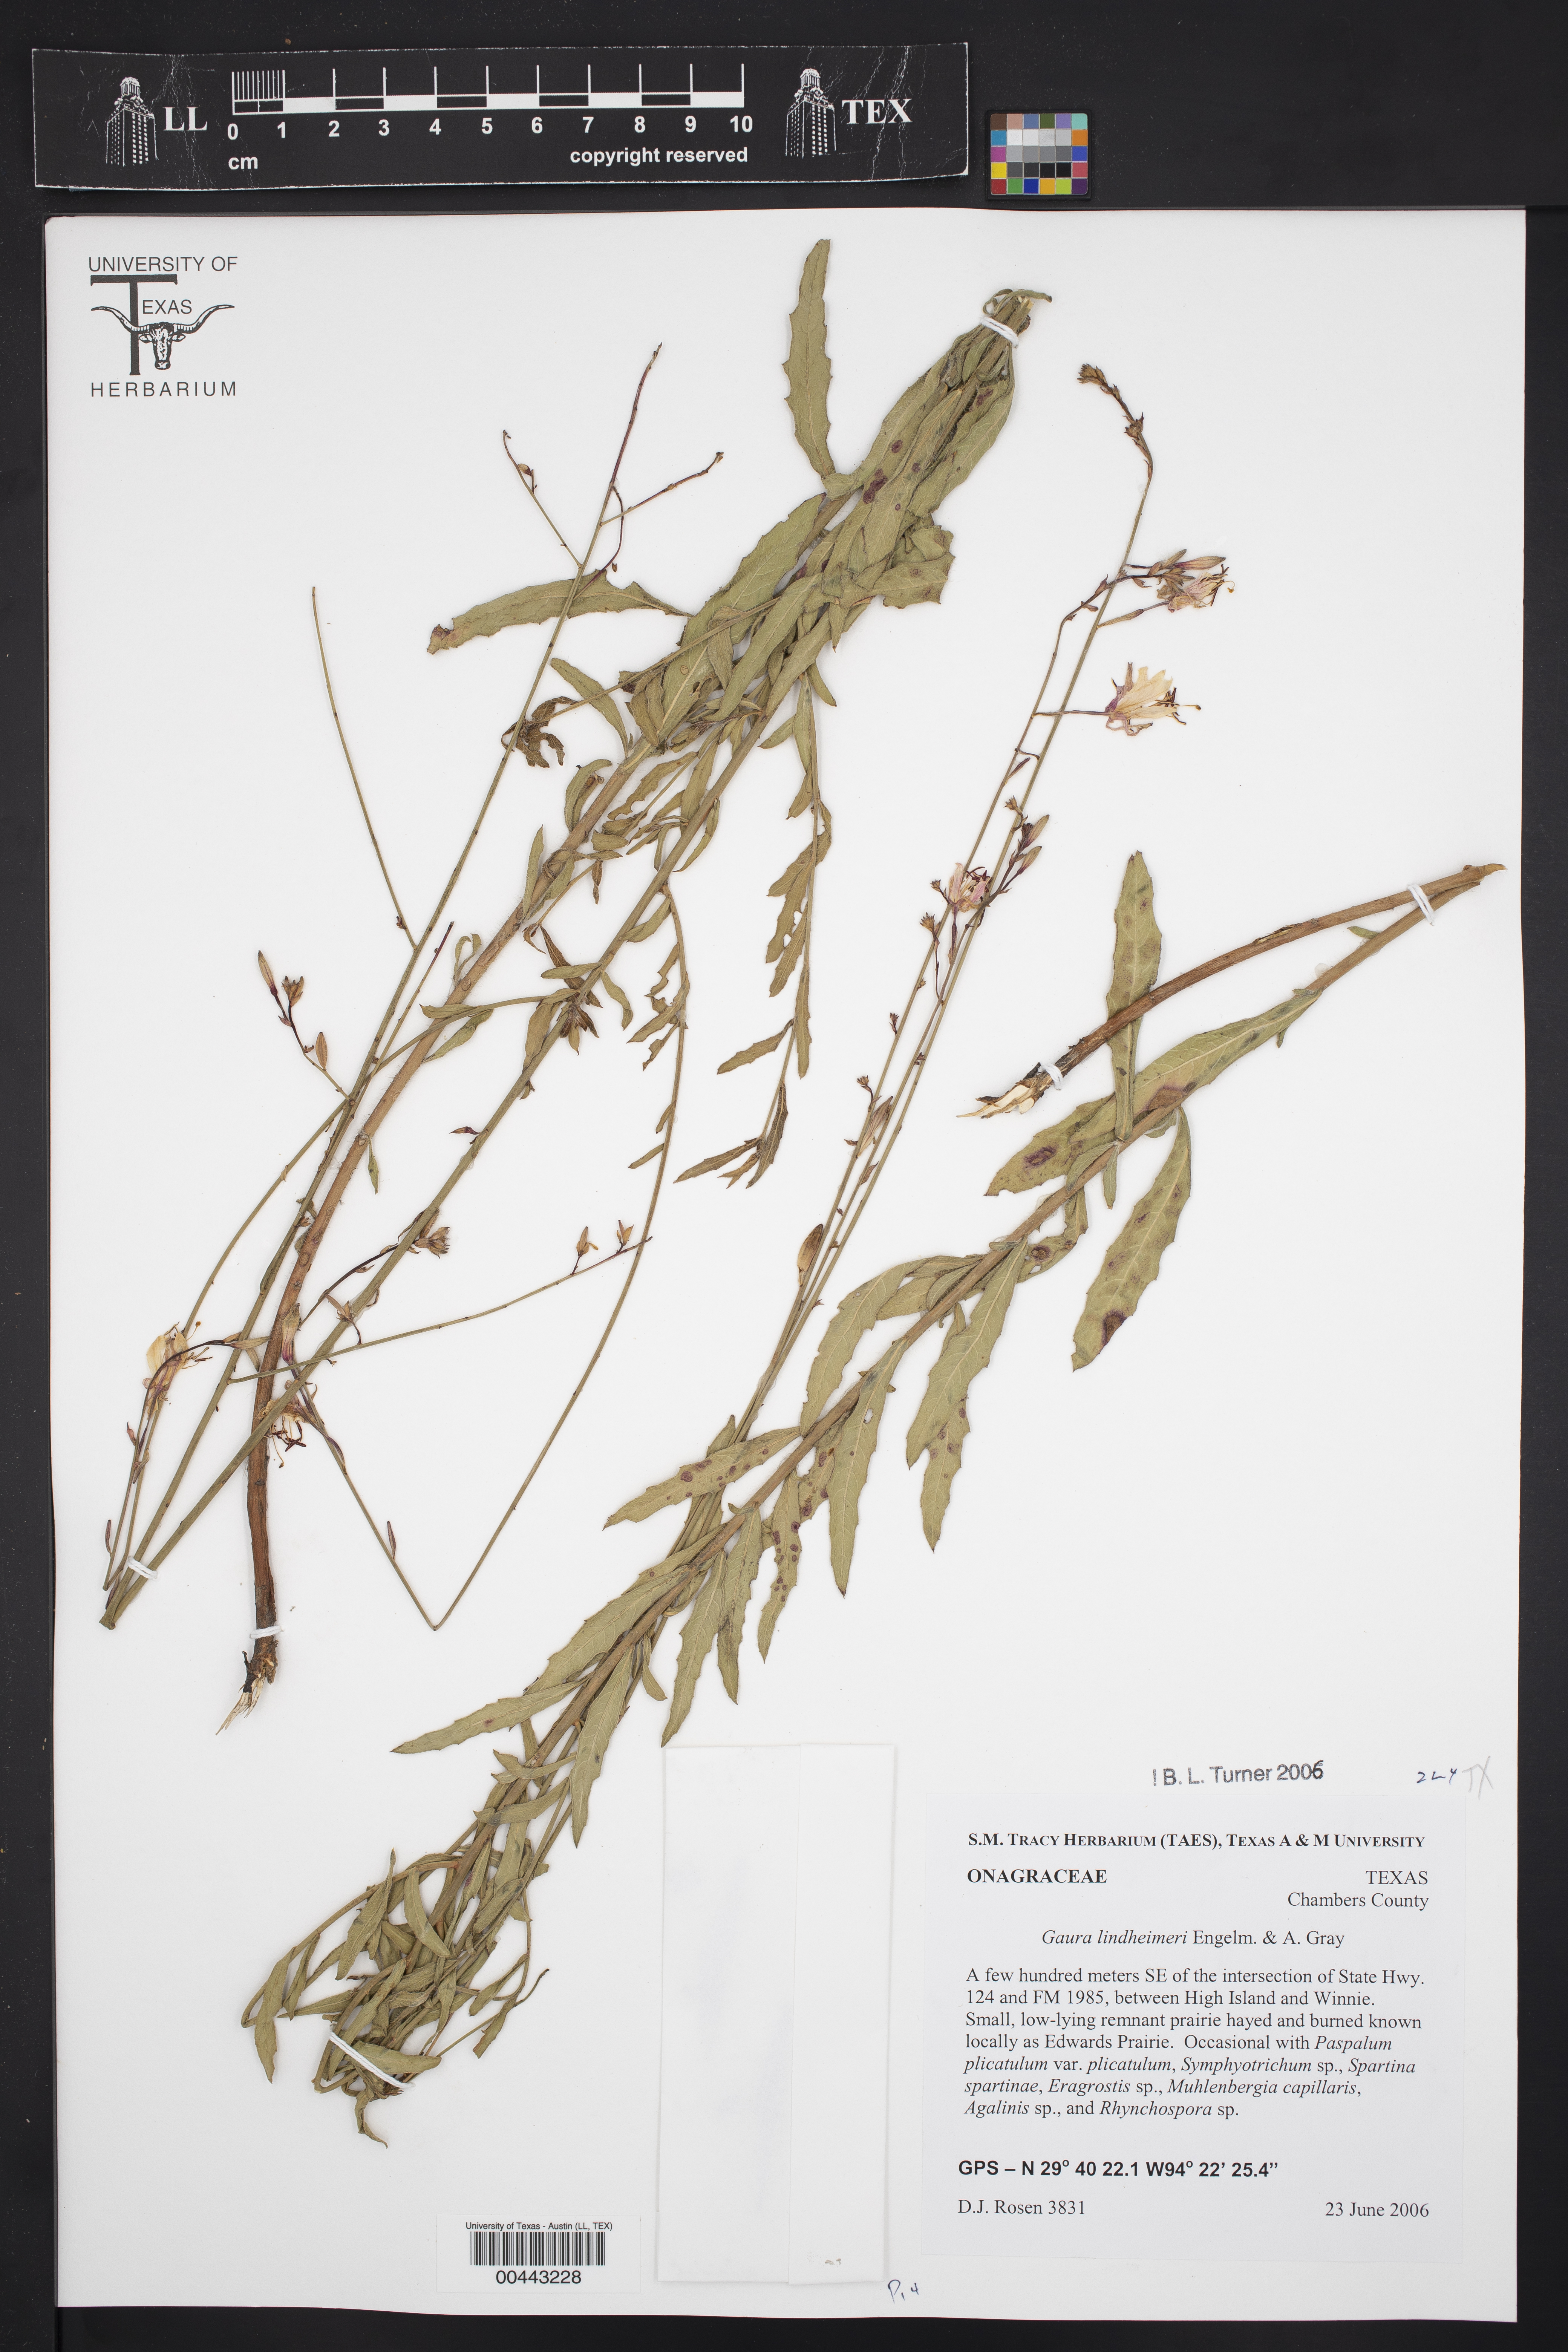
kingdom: Plantae
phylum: Tracheophyta
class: Magnoliopsida
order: Myrtales
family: Onagraceae
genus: Oenothera
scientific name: Oenothera lindheimeri
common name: Lindheimer's beeblossom
